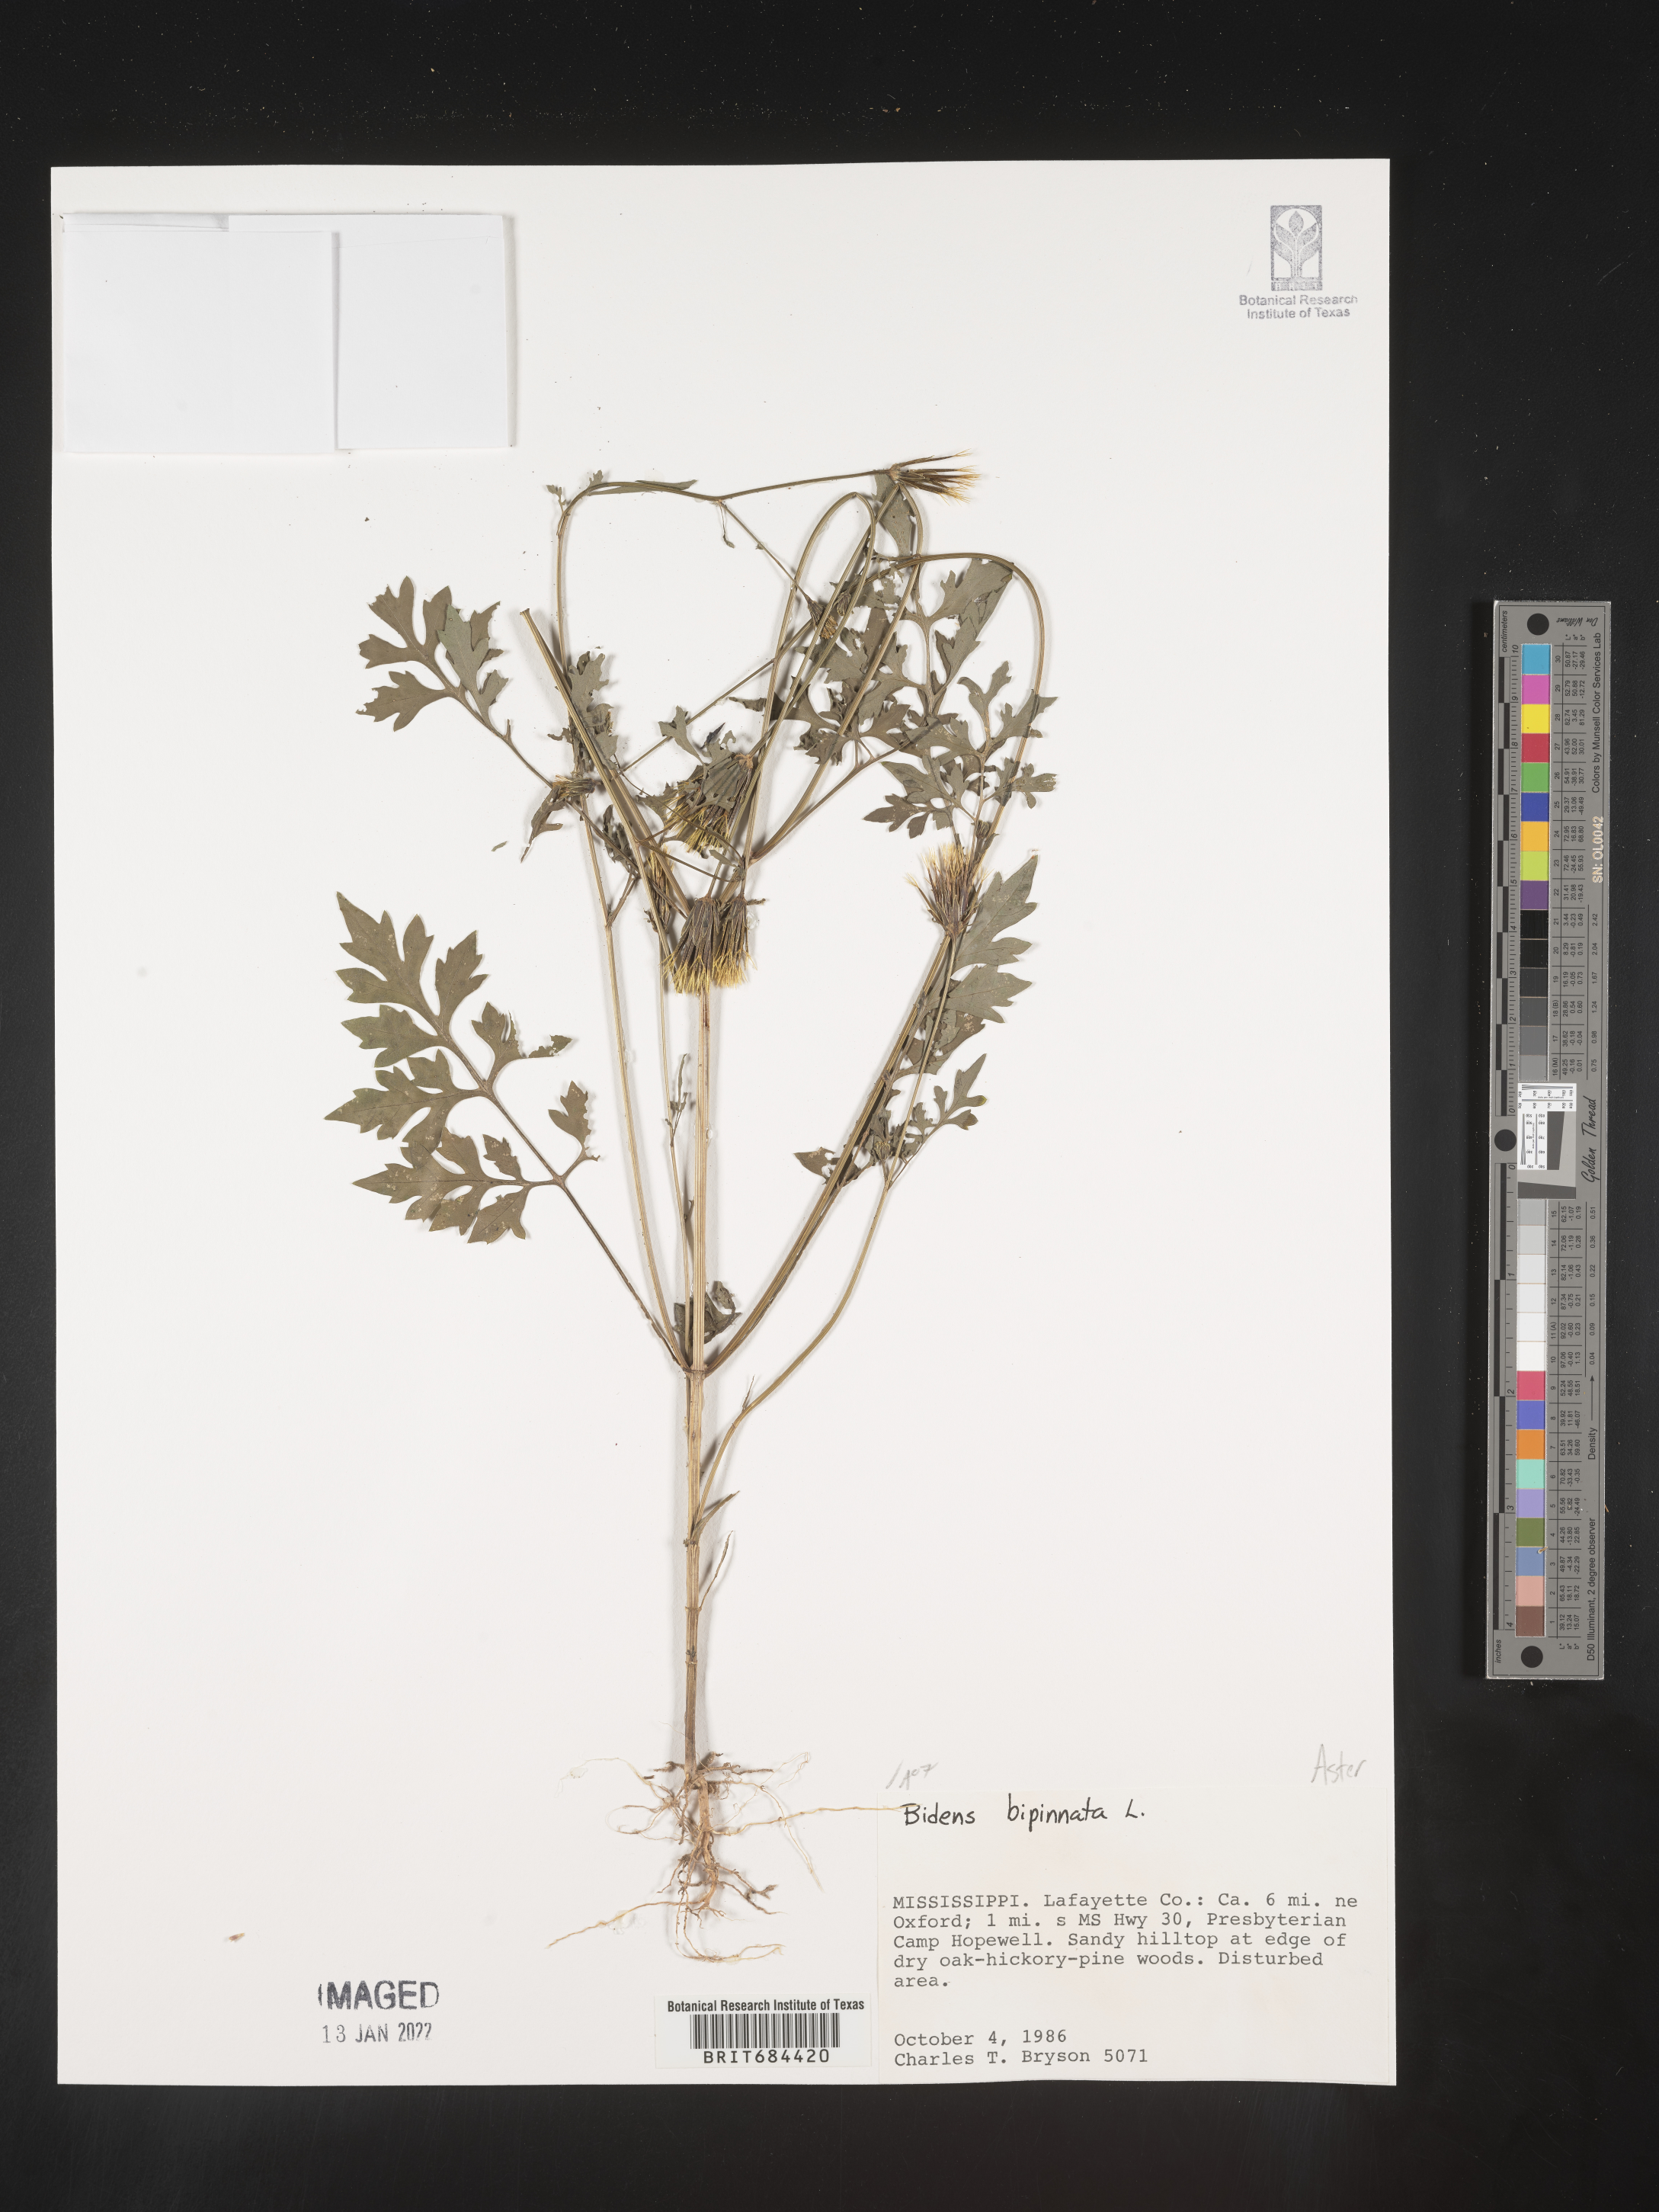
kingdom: Plantae
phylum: Tracheophyta
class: Magnoliopsida
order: Asterales
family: Asteraceae
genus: Bidens
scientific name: Bidens bipinnata
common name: Spanish-needles
